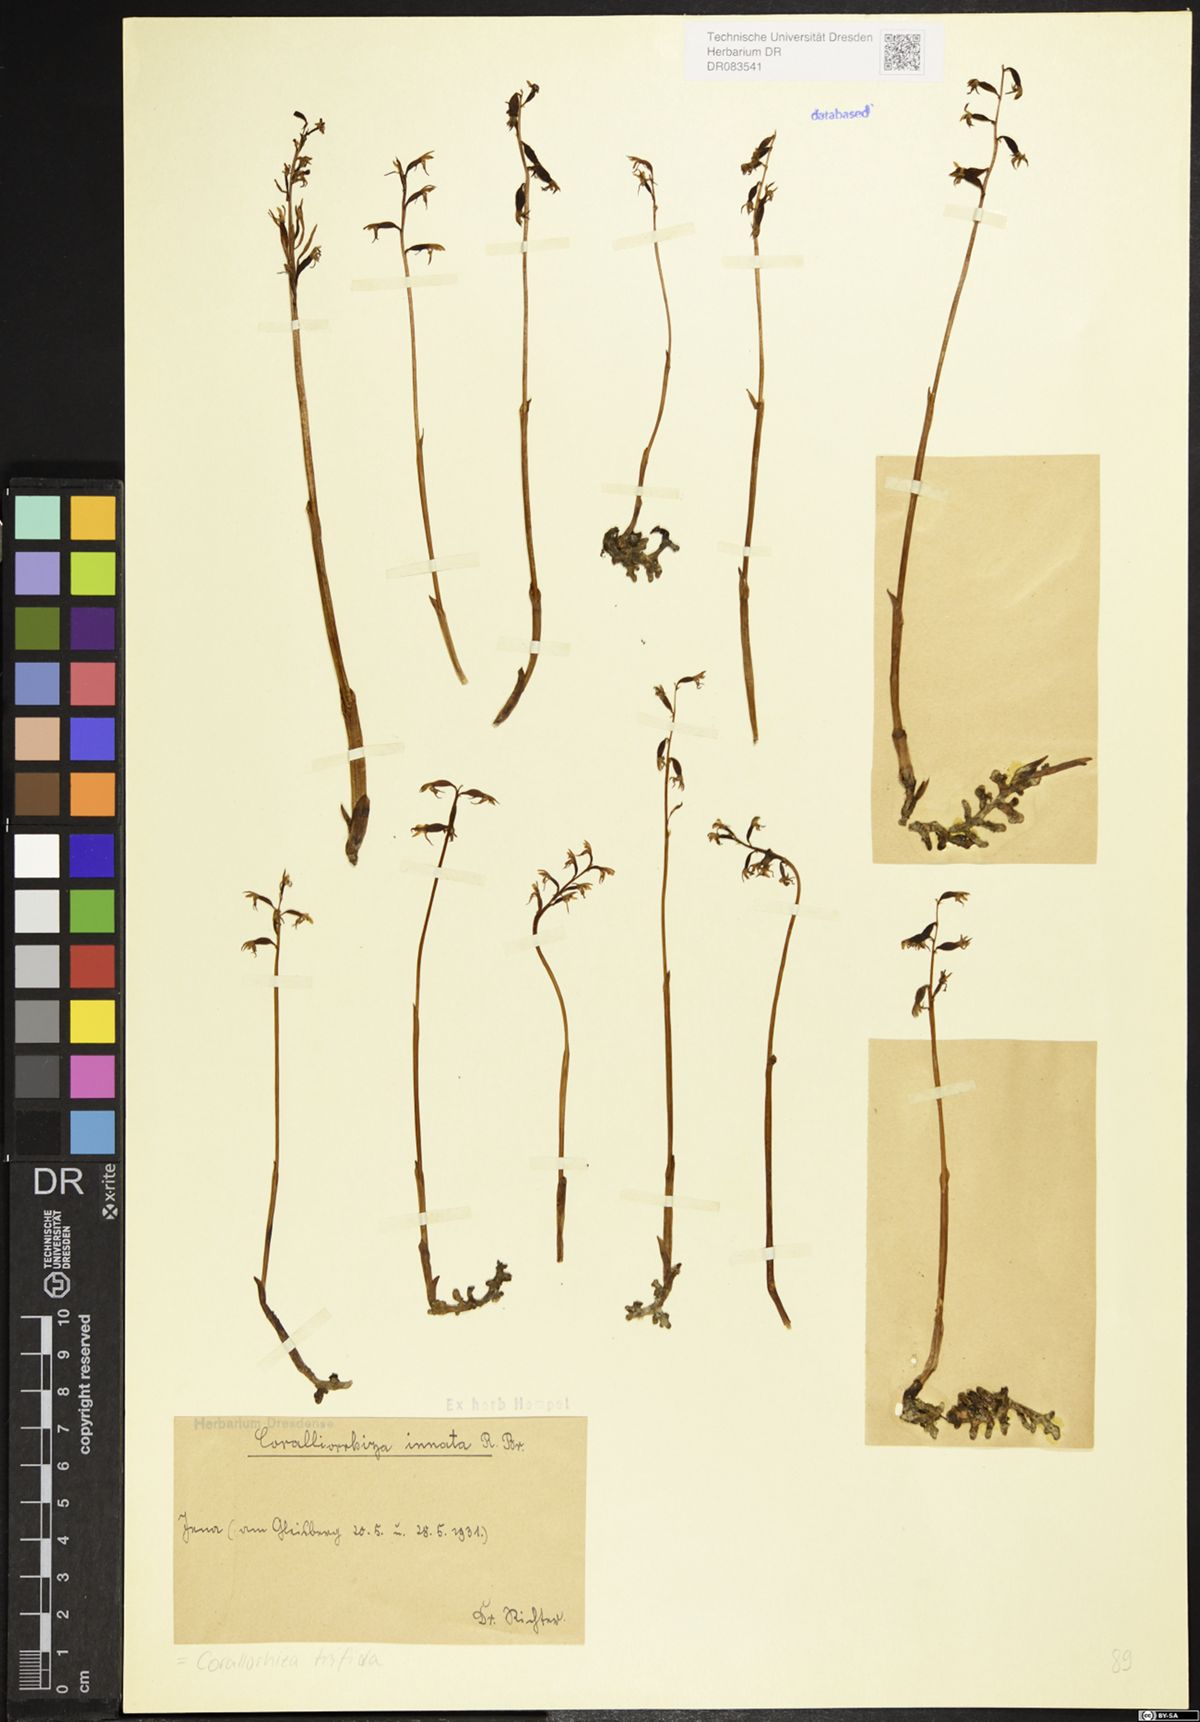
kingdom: Plantae
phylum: Tracheophyta
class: Liliopsida
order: Asparagales
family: Orchidaceae
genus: Corallorhiza
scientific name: Corallorhiza trifida
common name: Yellow coralroot
